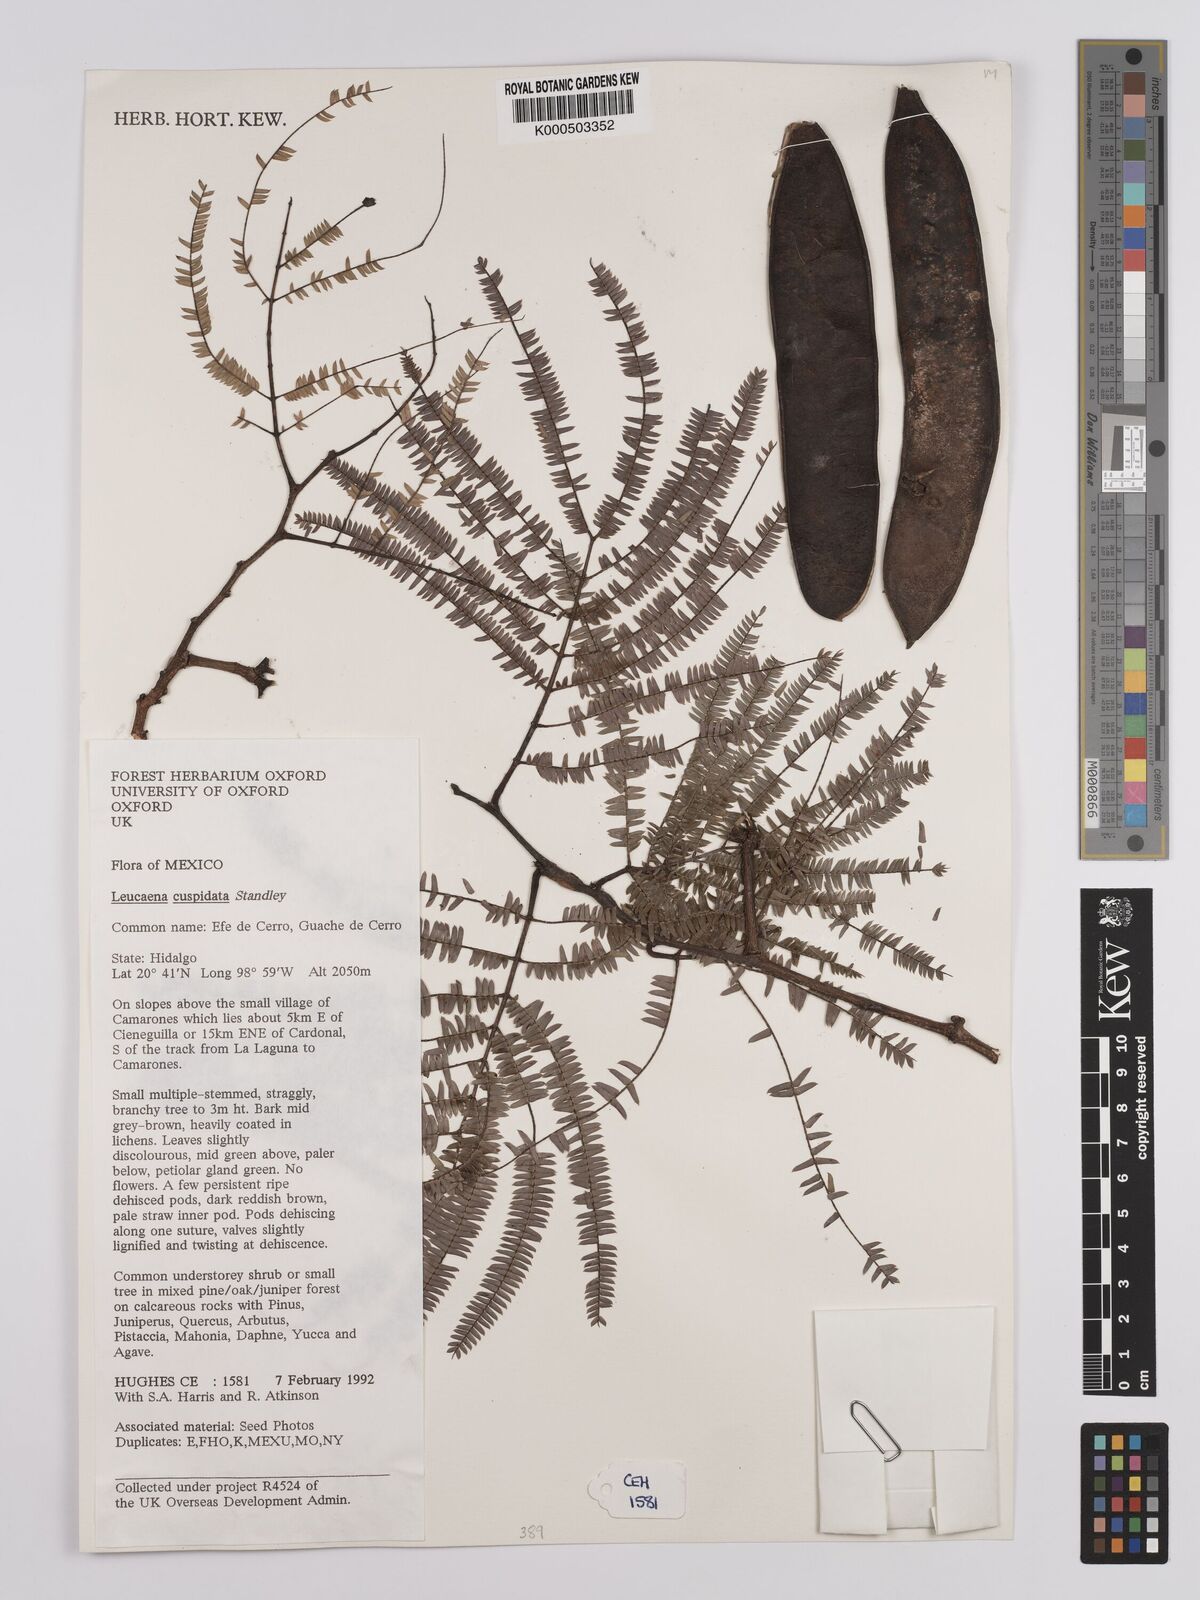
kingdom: Plantae
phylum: Tracheophyta
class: Magnoliopsida
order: Fabales
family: Fabaceae
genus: Leucaena
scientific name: Leucaena cuspidata
